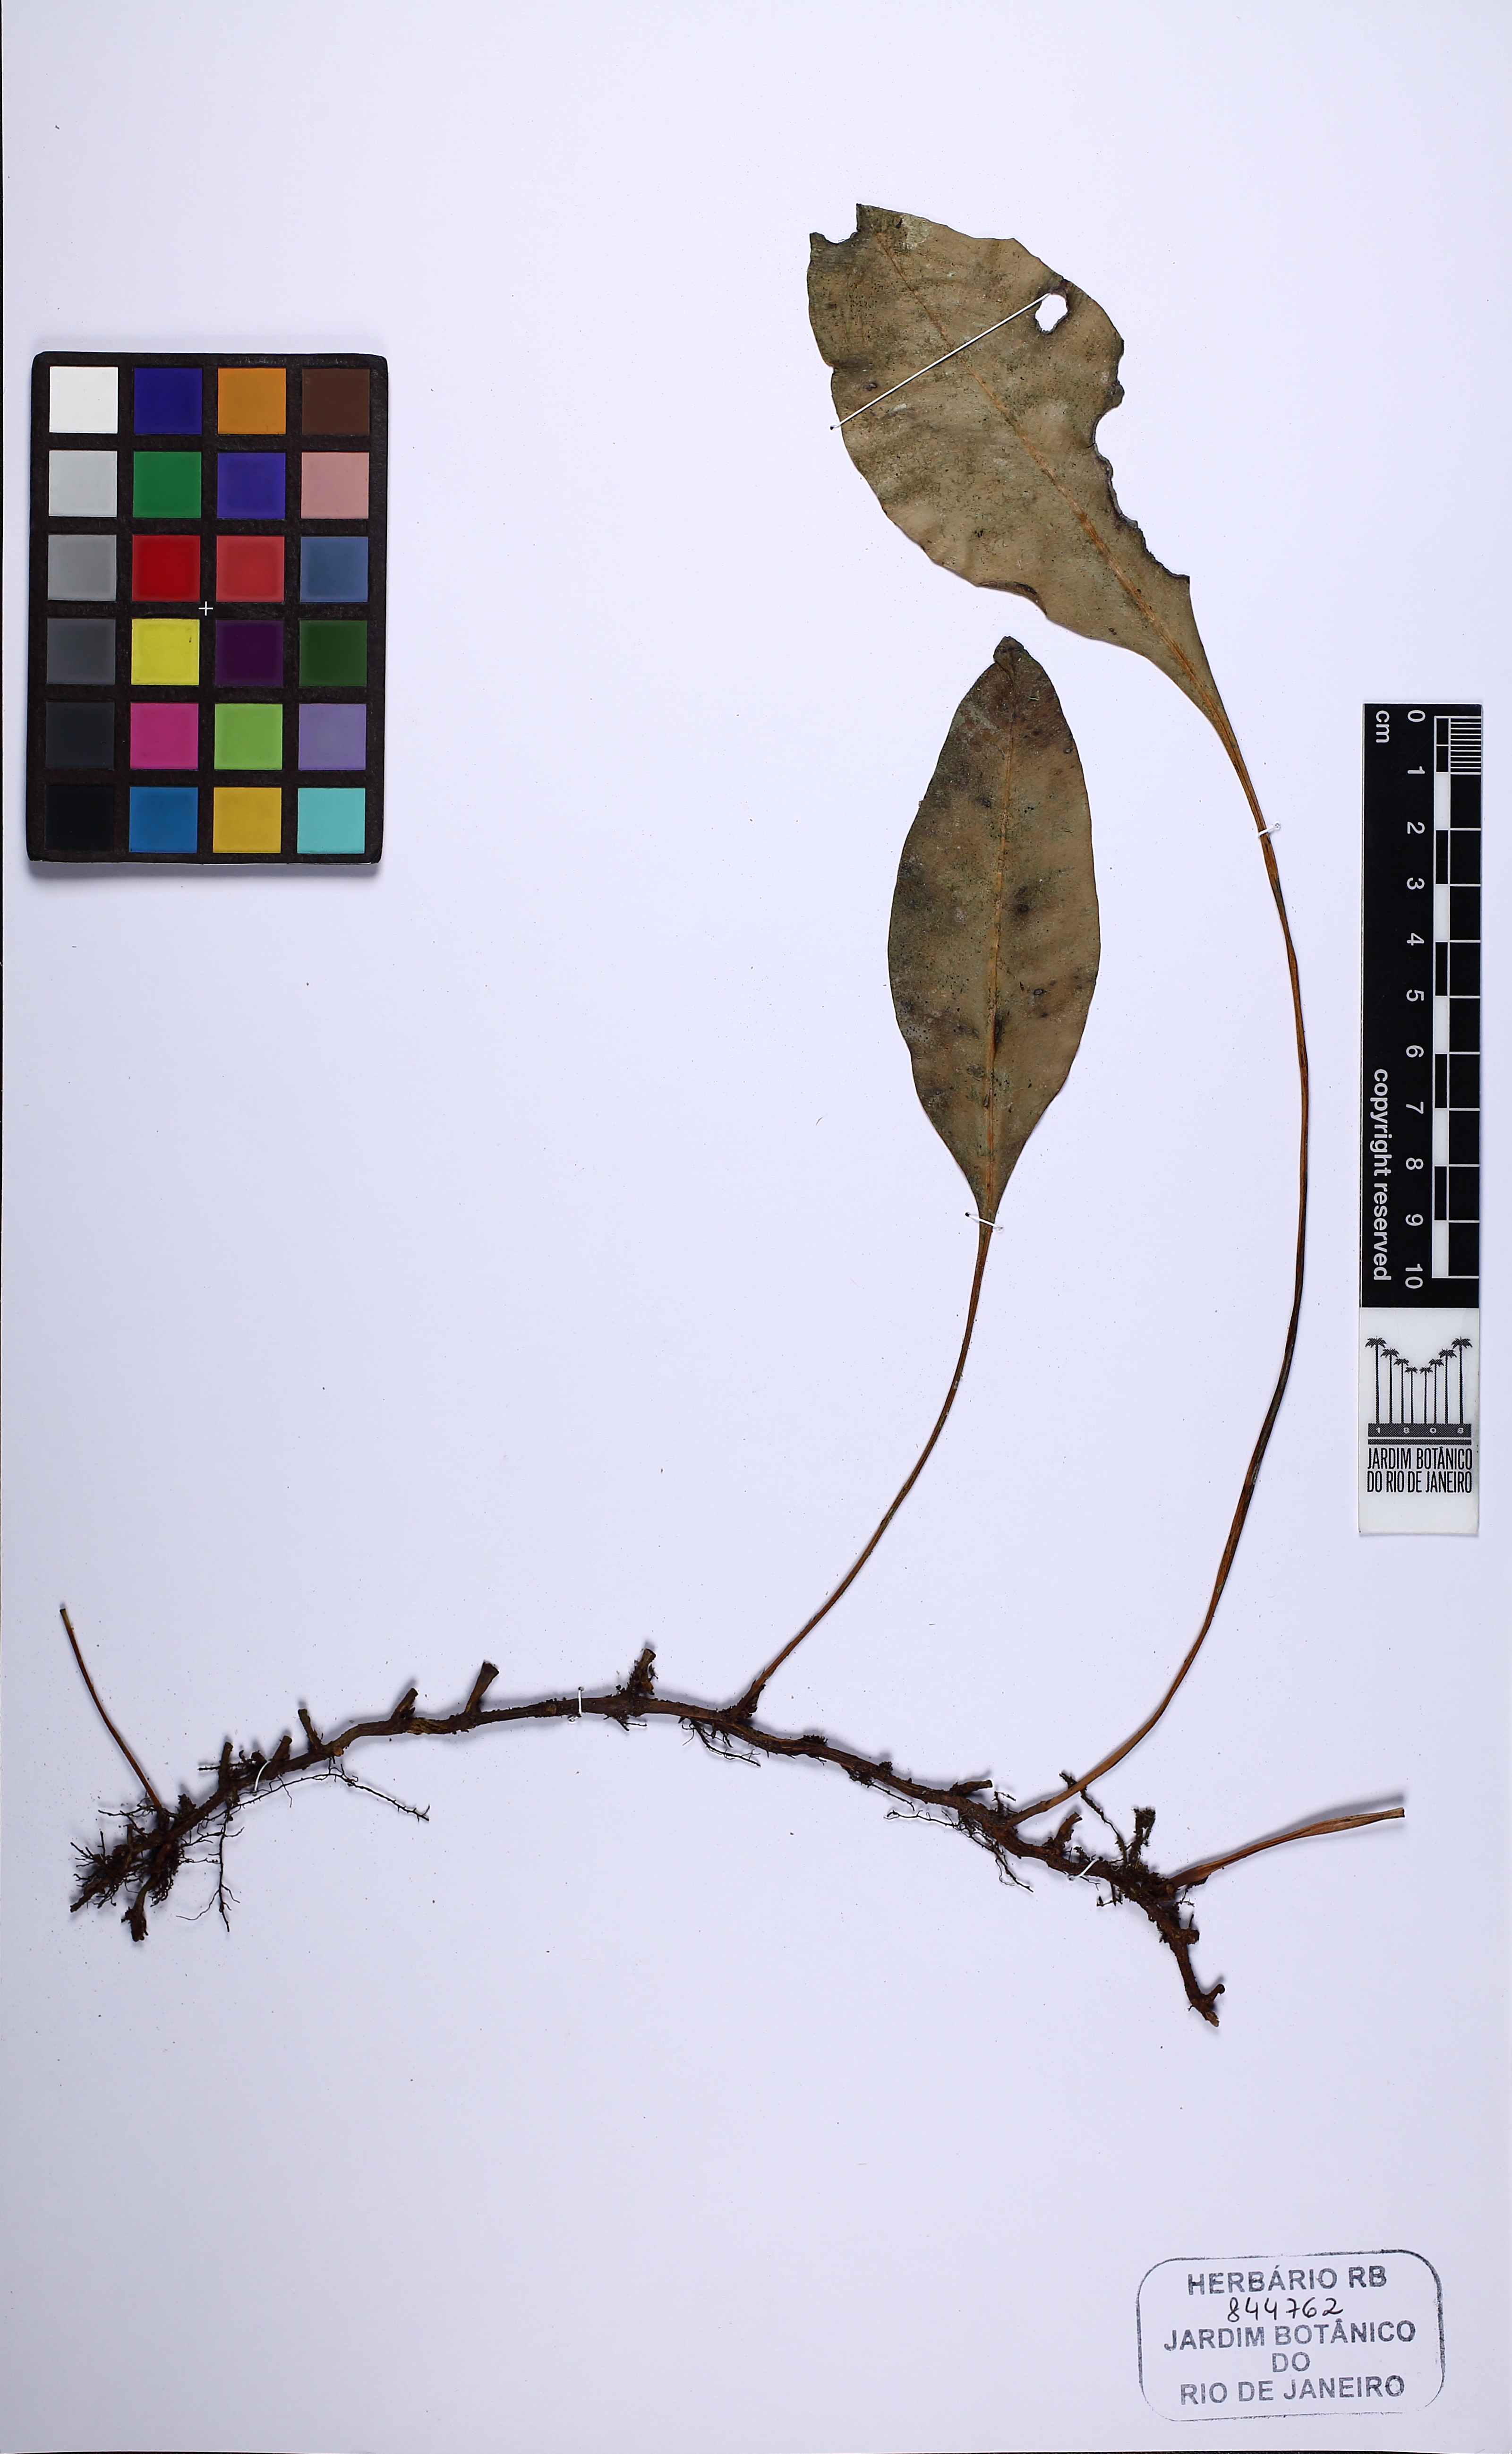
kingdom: Plantae
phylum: Tracheophyta
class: Polypodiopsida
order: Polypodiales
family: Dryopteridaceae
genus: Elaphoglossum
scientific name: Elaphoglossum lingua
